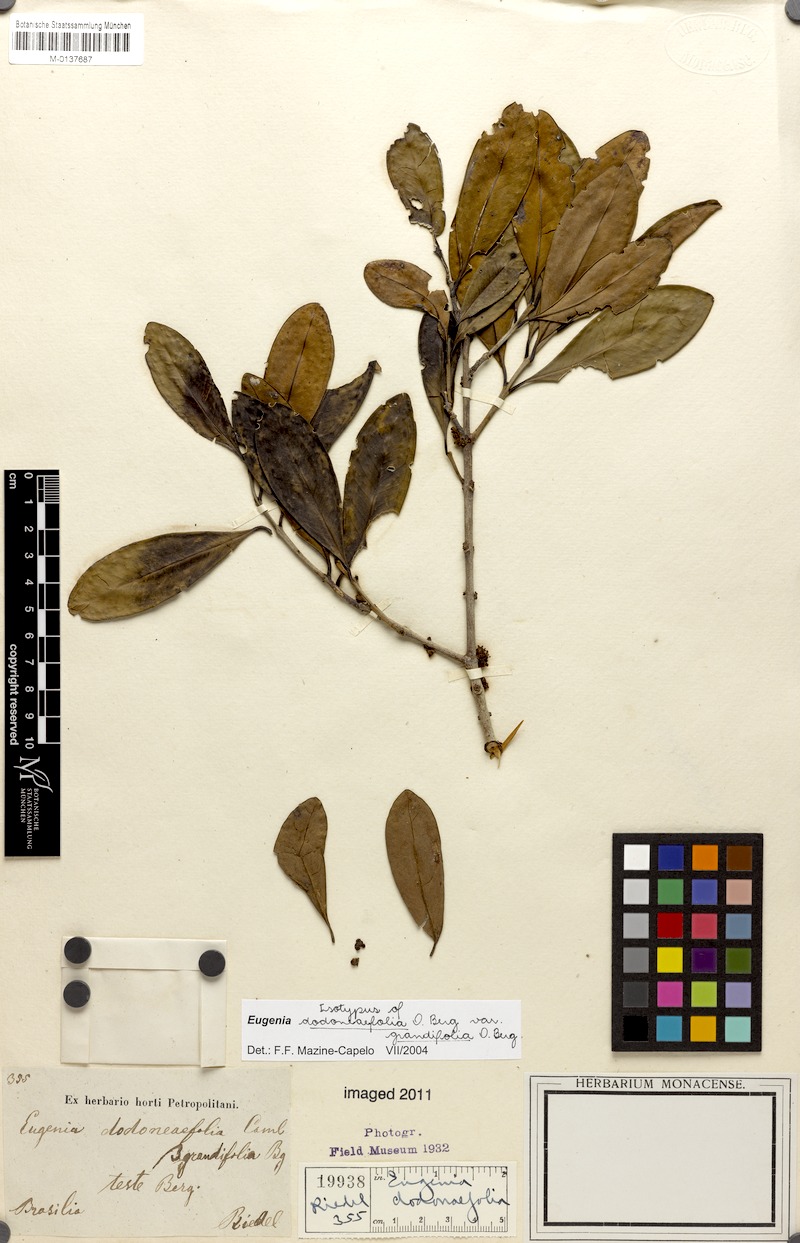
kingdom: Plantae
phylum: Tracheophyta
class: Magnoliopsida
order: Myrtales
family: Myrtaceae
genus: Eugenia
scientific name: Eugenia dodonaeifolia
